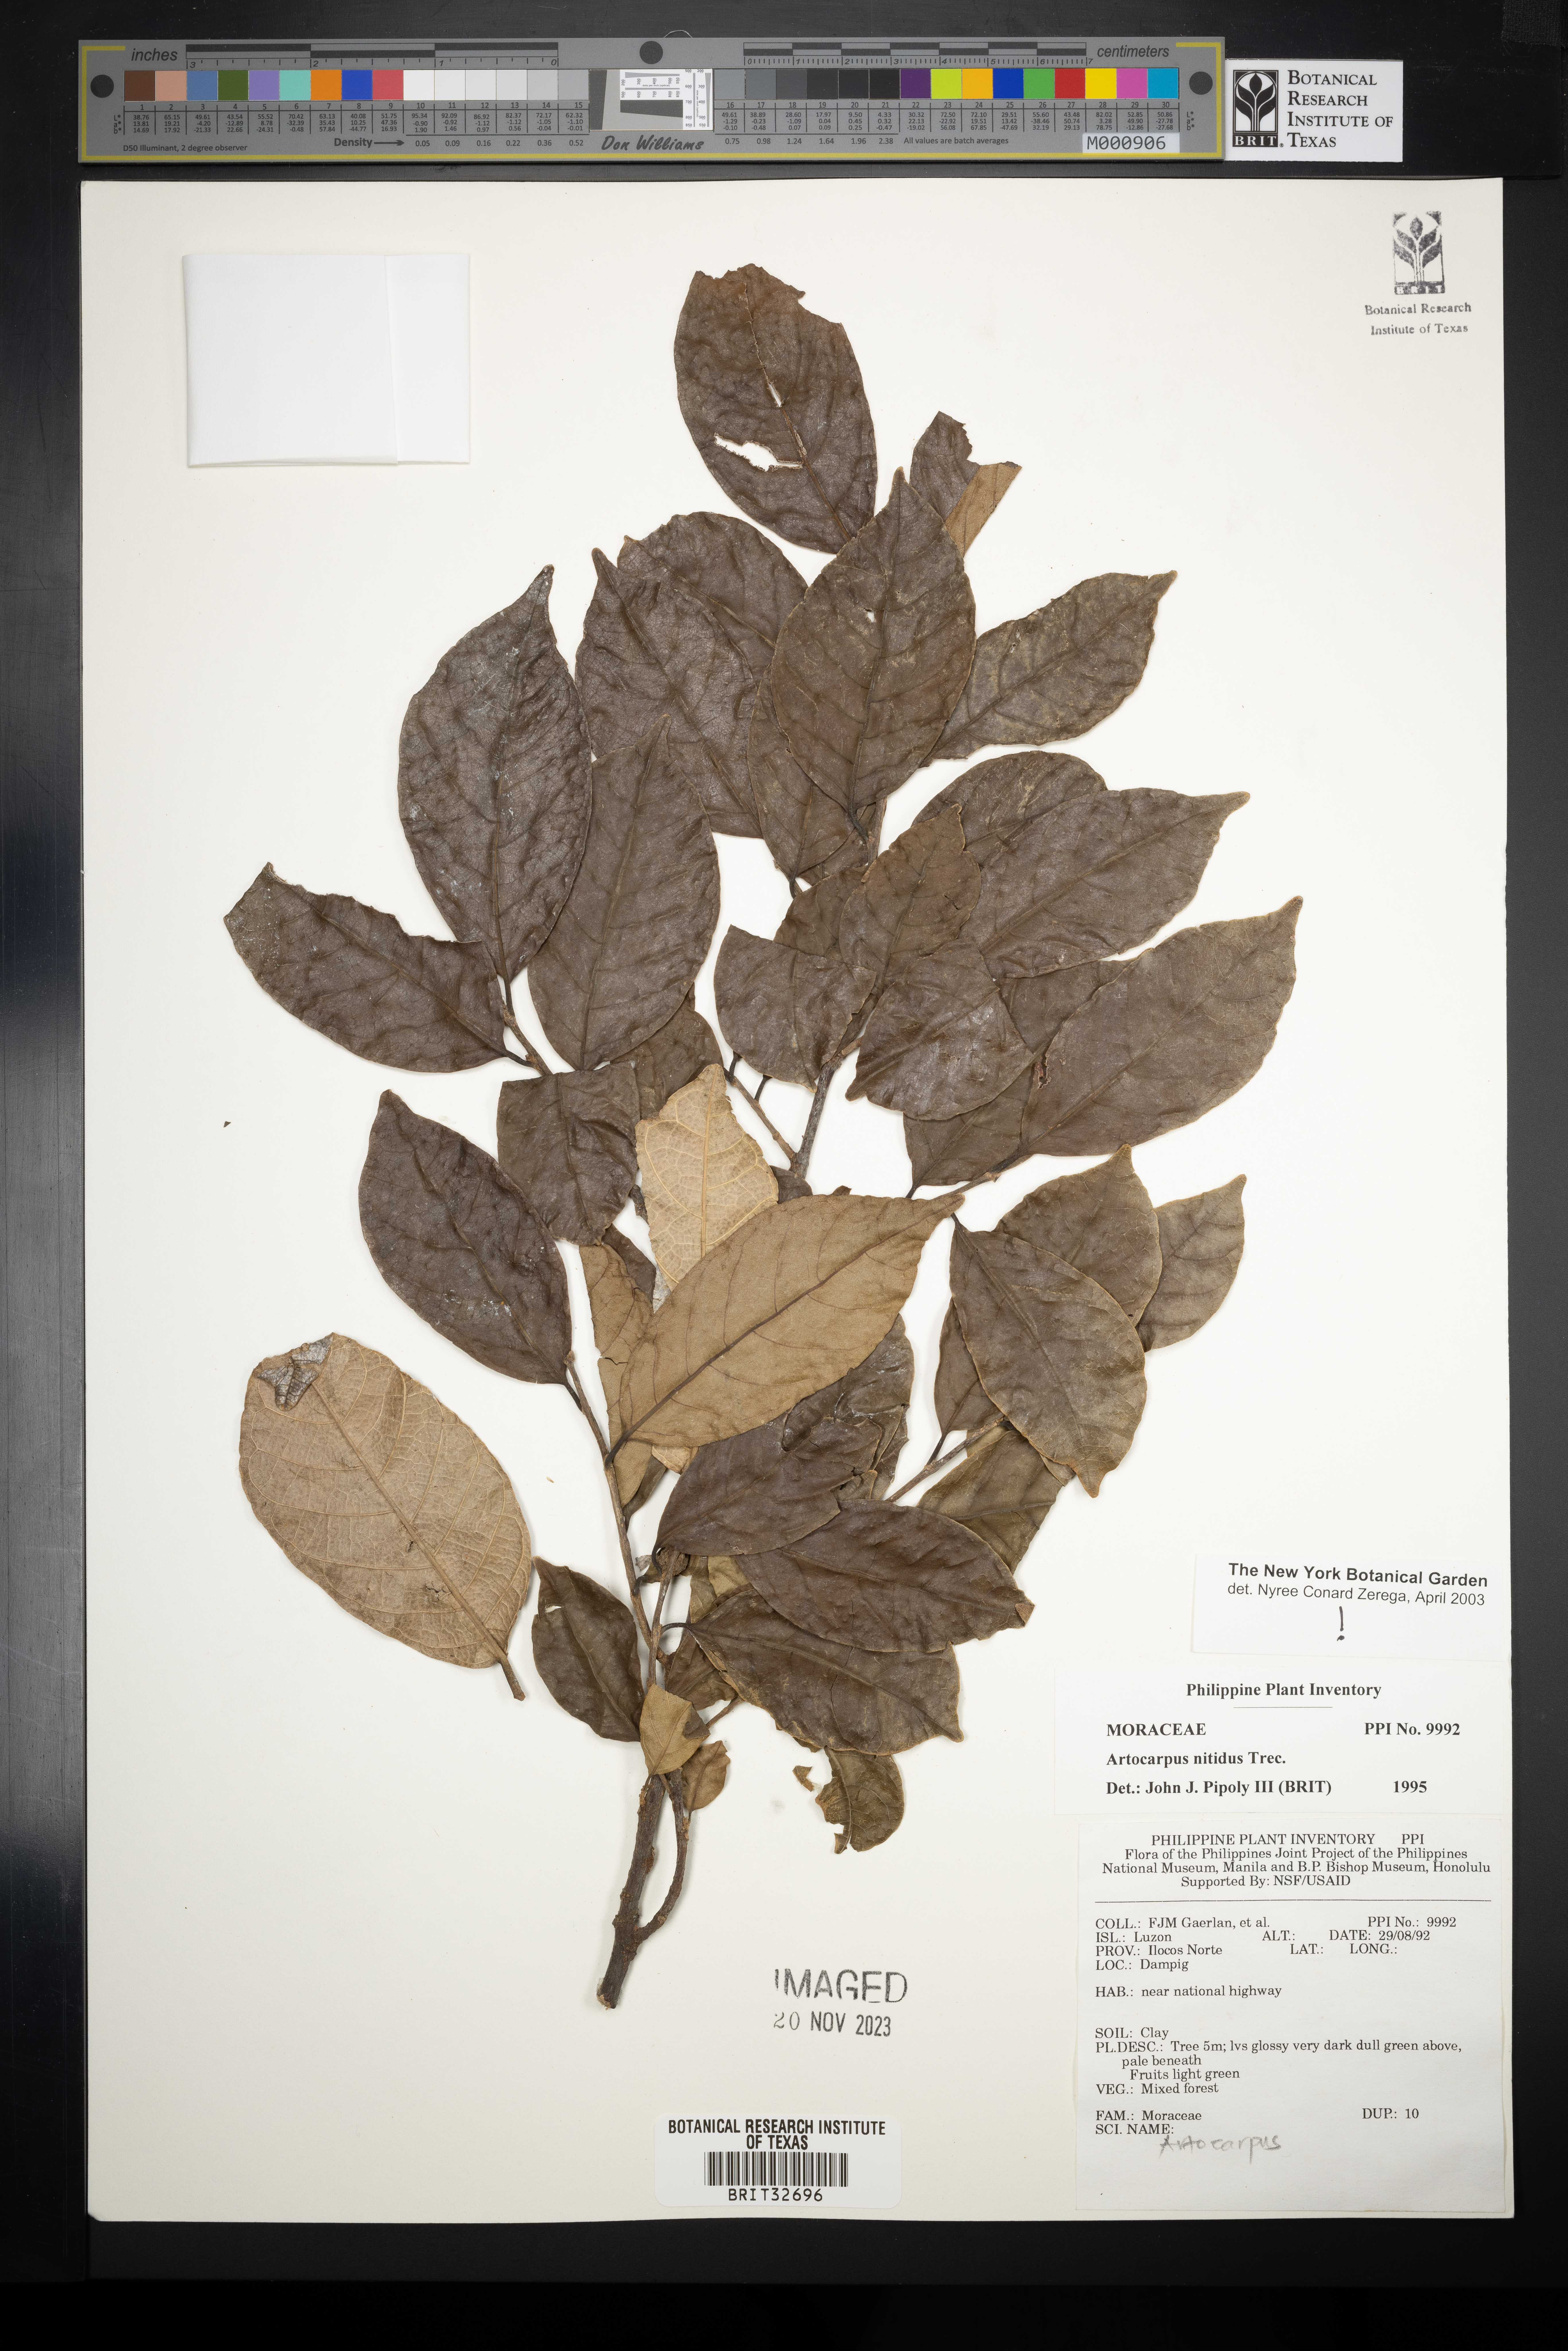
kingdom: Plantae
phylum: Tracheophyta
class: Magnoliopsida
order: Rosales
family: Moraceae
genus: Artocarpus
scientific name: Artocarpus lamellosus
